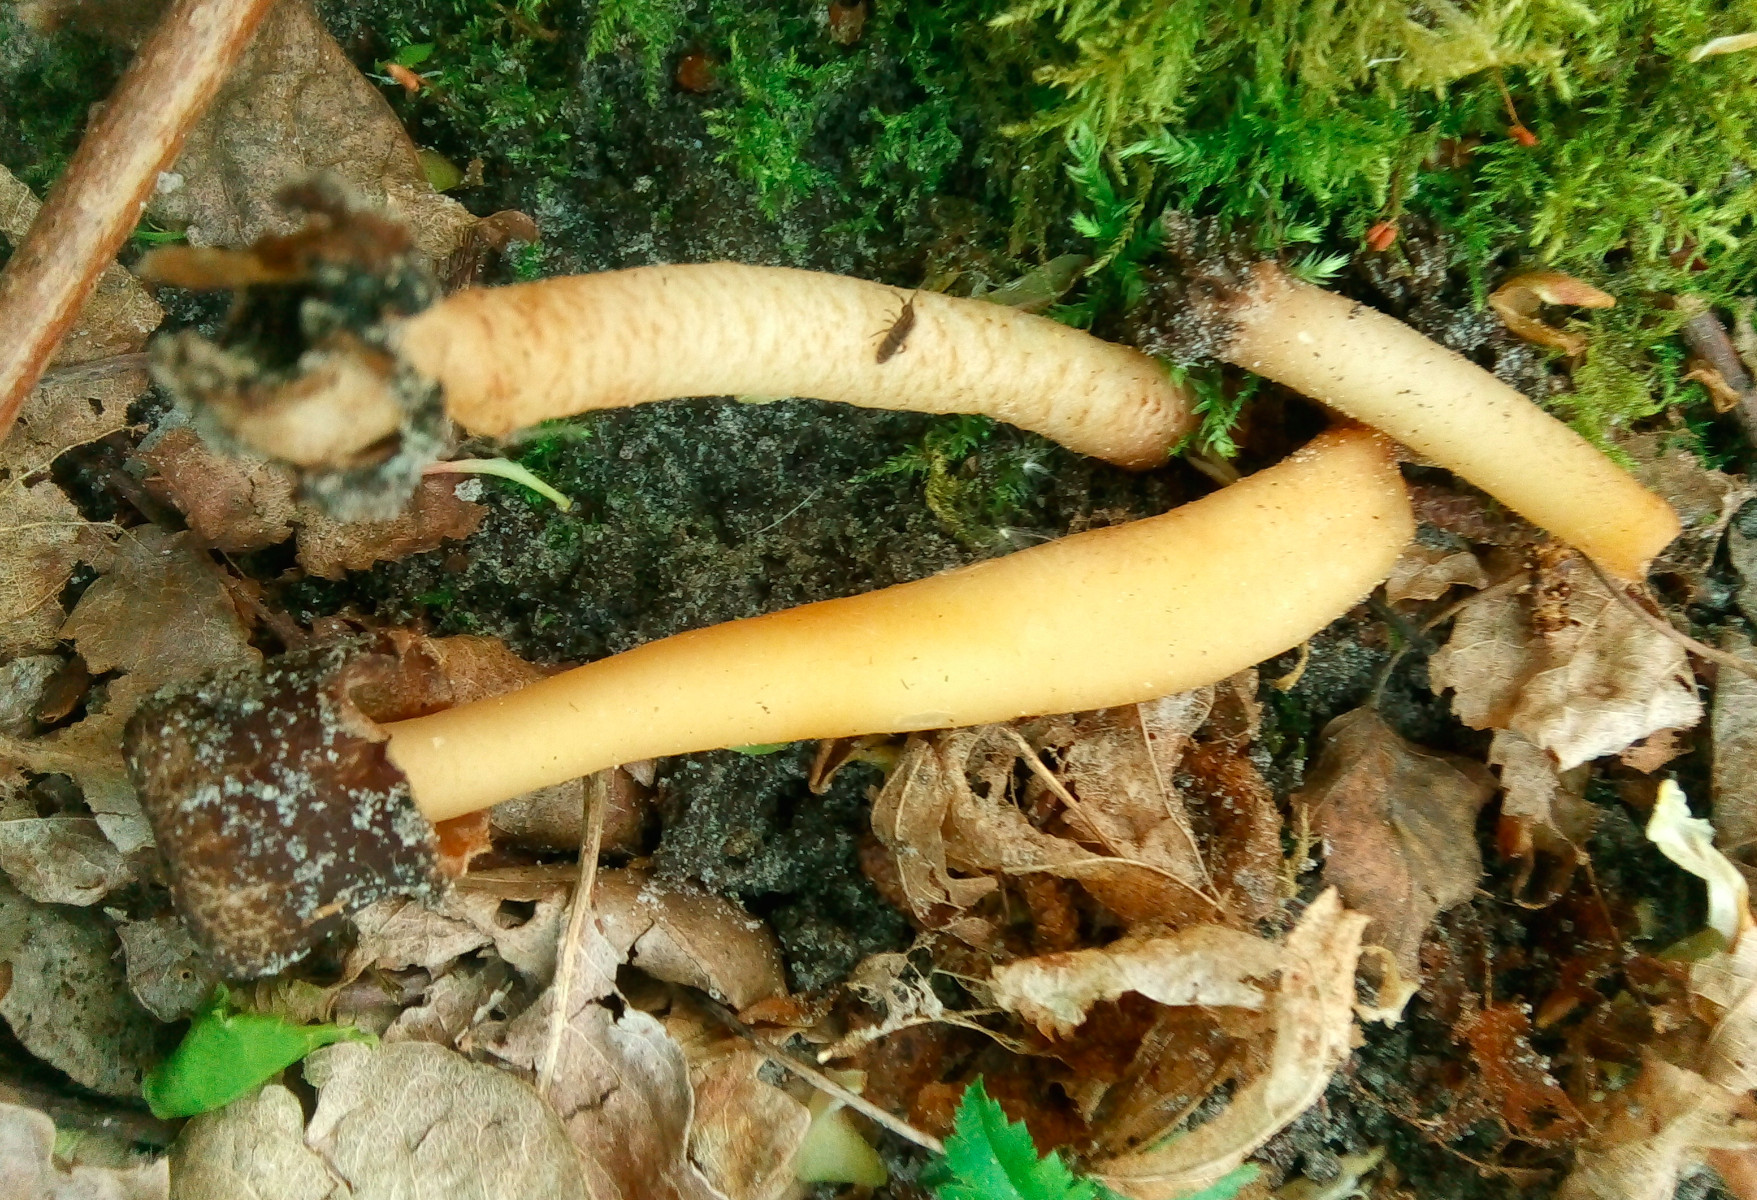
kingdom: Fungi
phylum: Ascomycota
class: Pezizomycetes
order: Pezizales
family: Morchellaceae
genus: Verpa
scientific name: Verpa conica
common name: glat klokkemorkel
